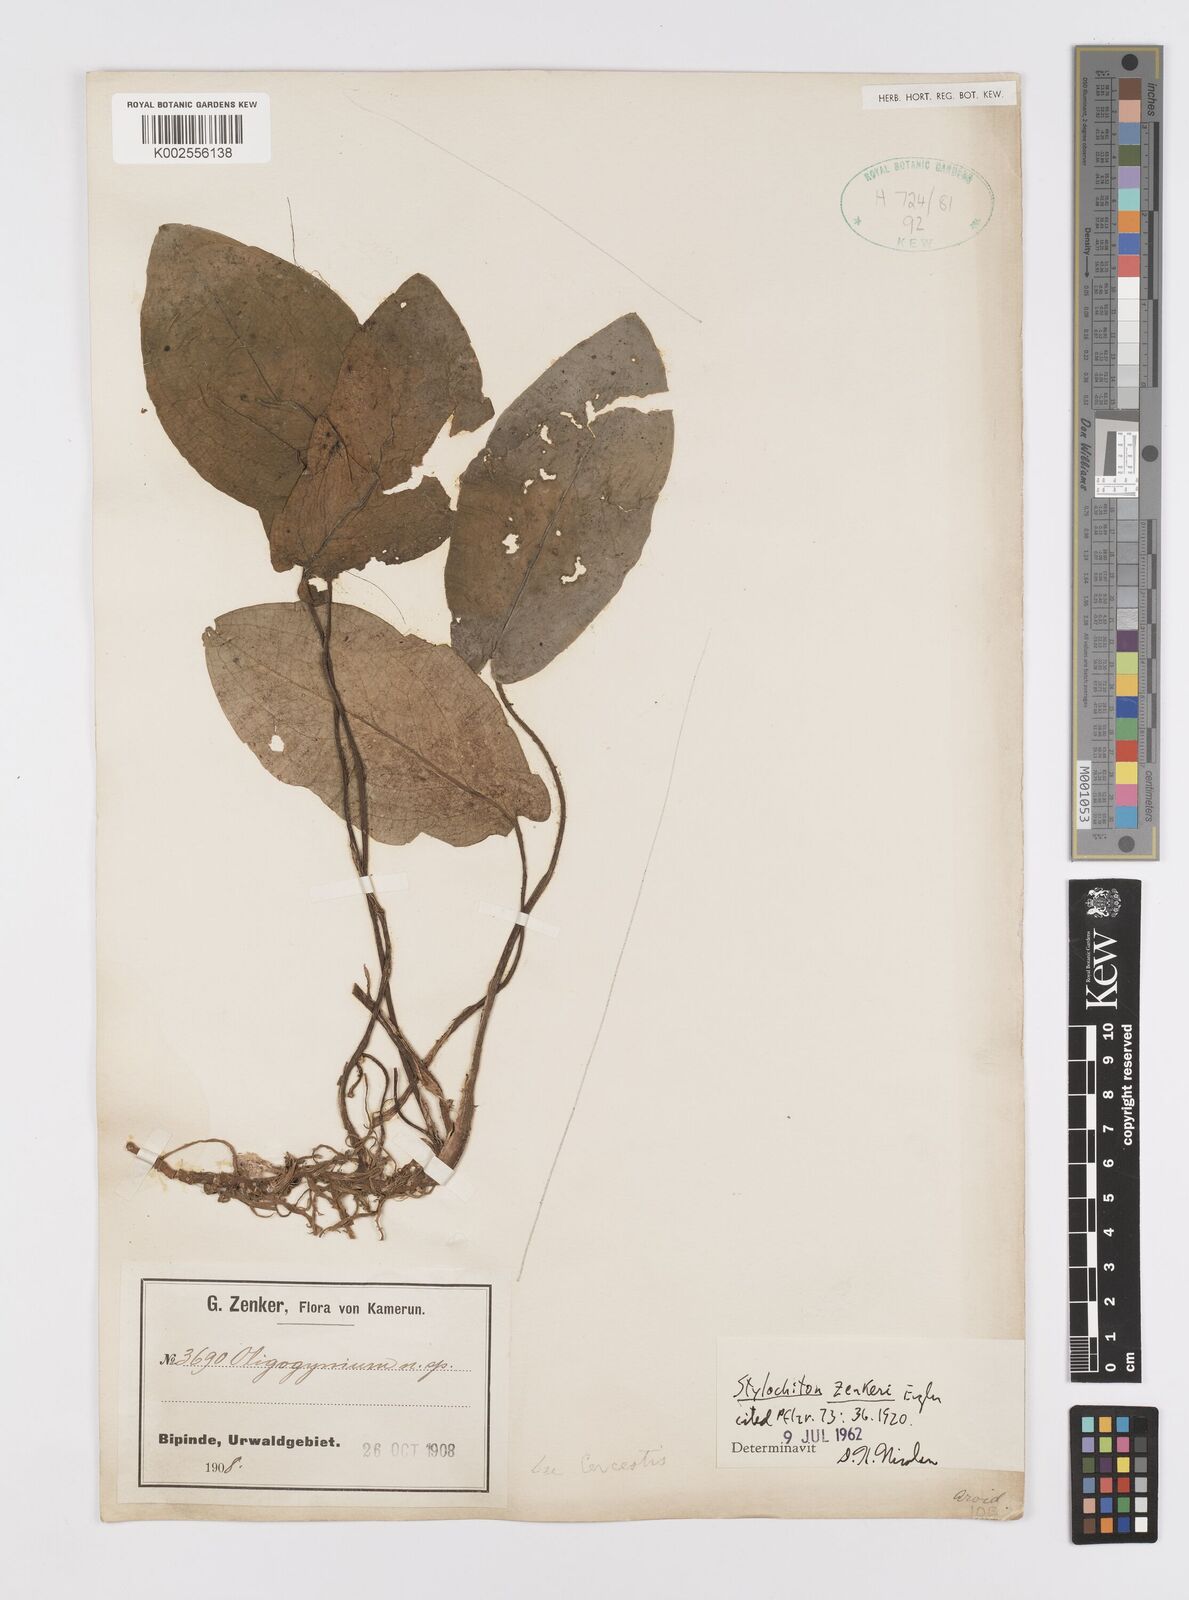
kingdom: Plantae
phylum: Tracheophyta
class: Liliopsida
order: Alismatales
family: Araceae
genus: Stylochaeton
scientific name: Stylochaeton zenkeri
